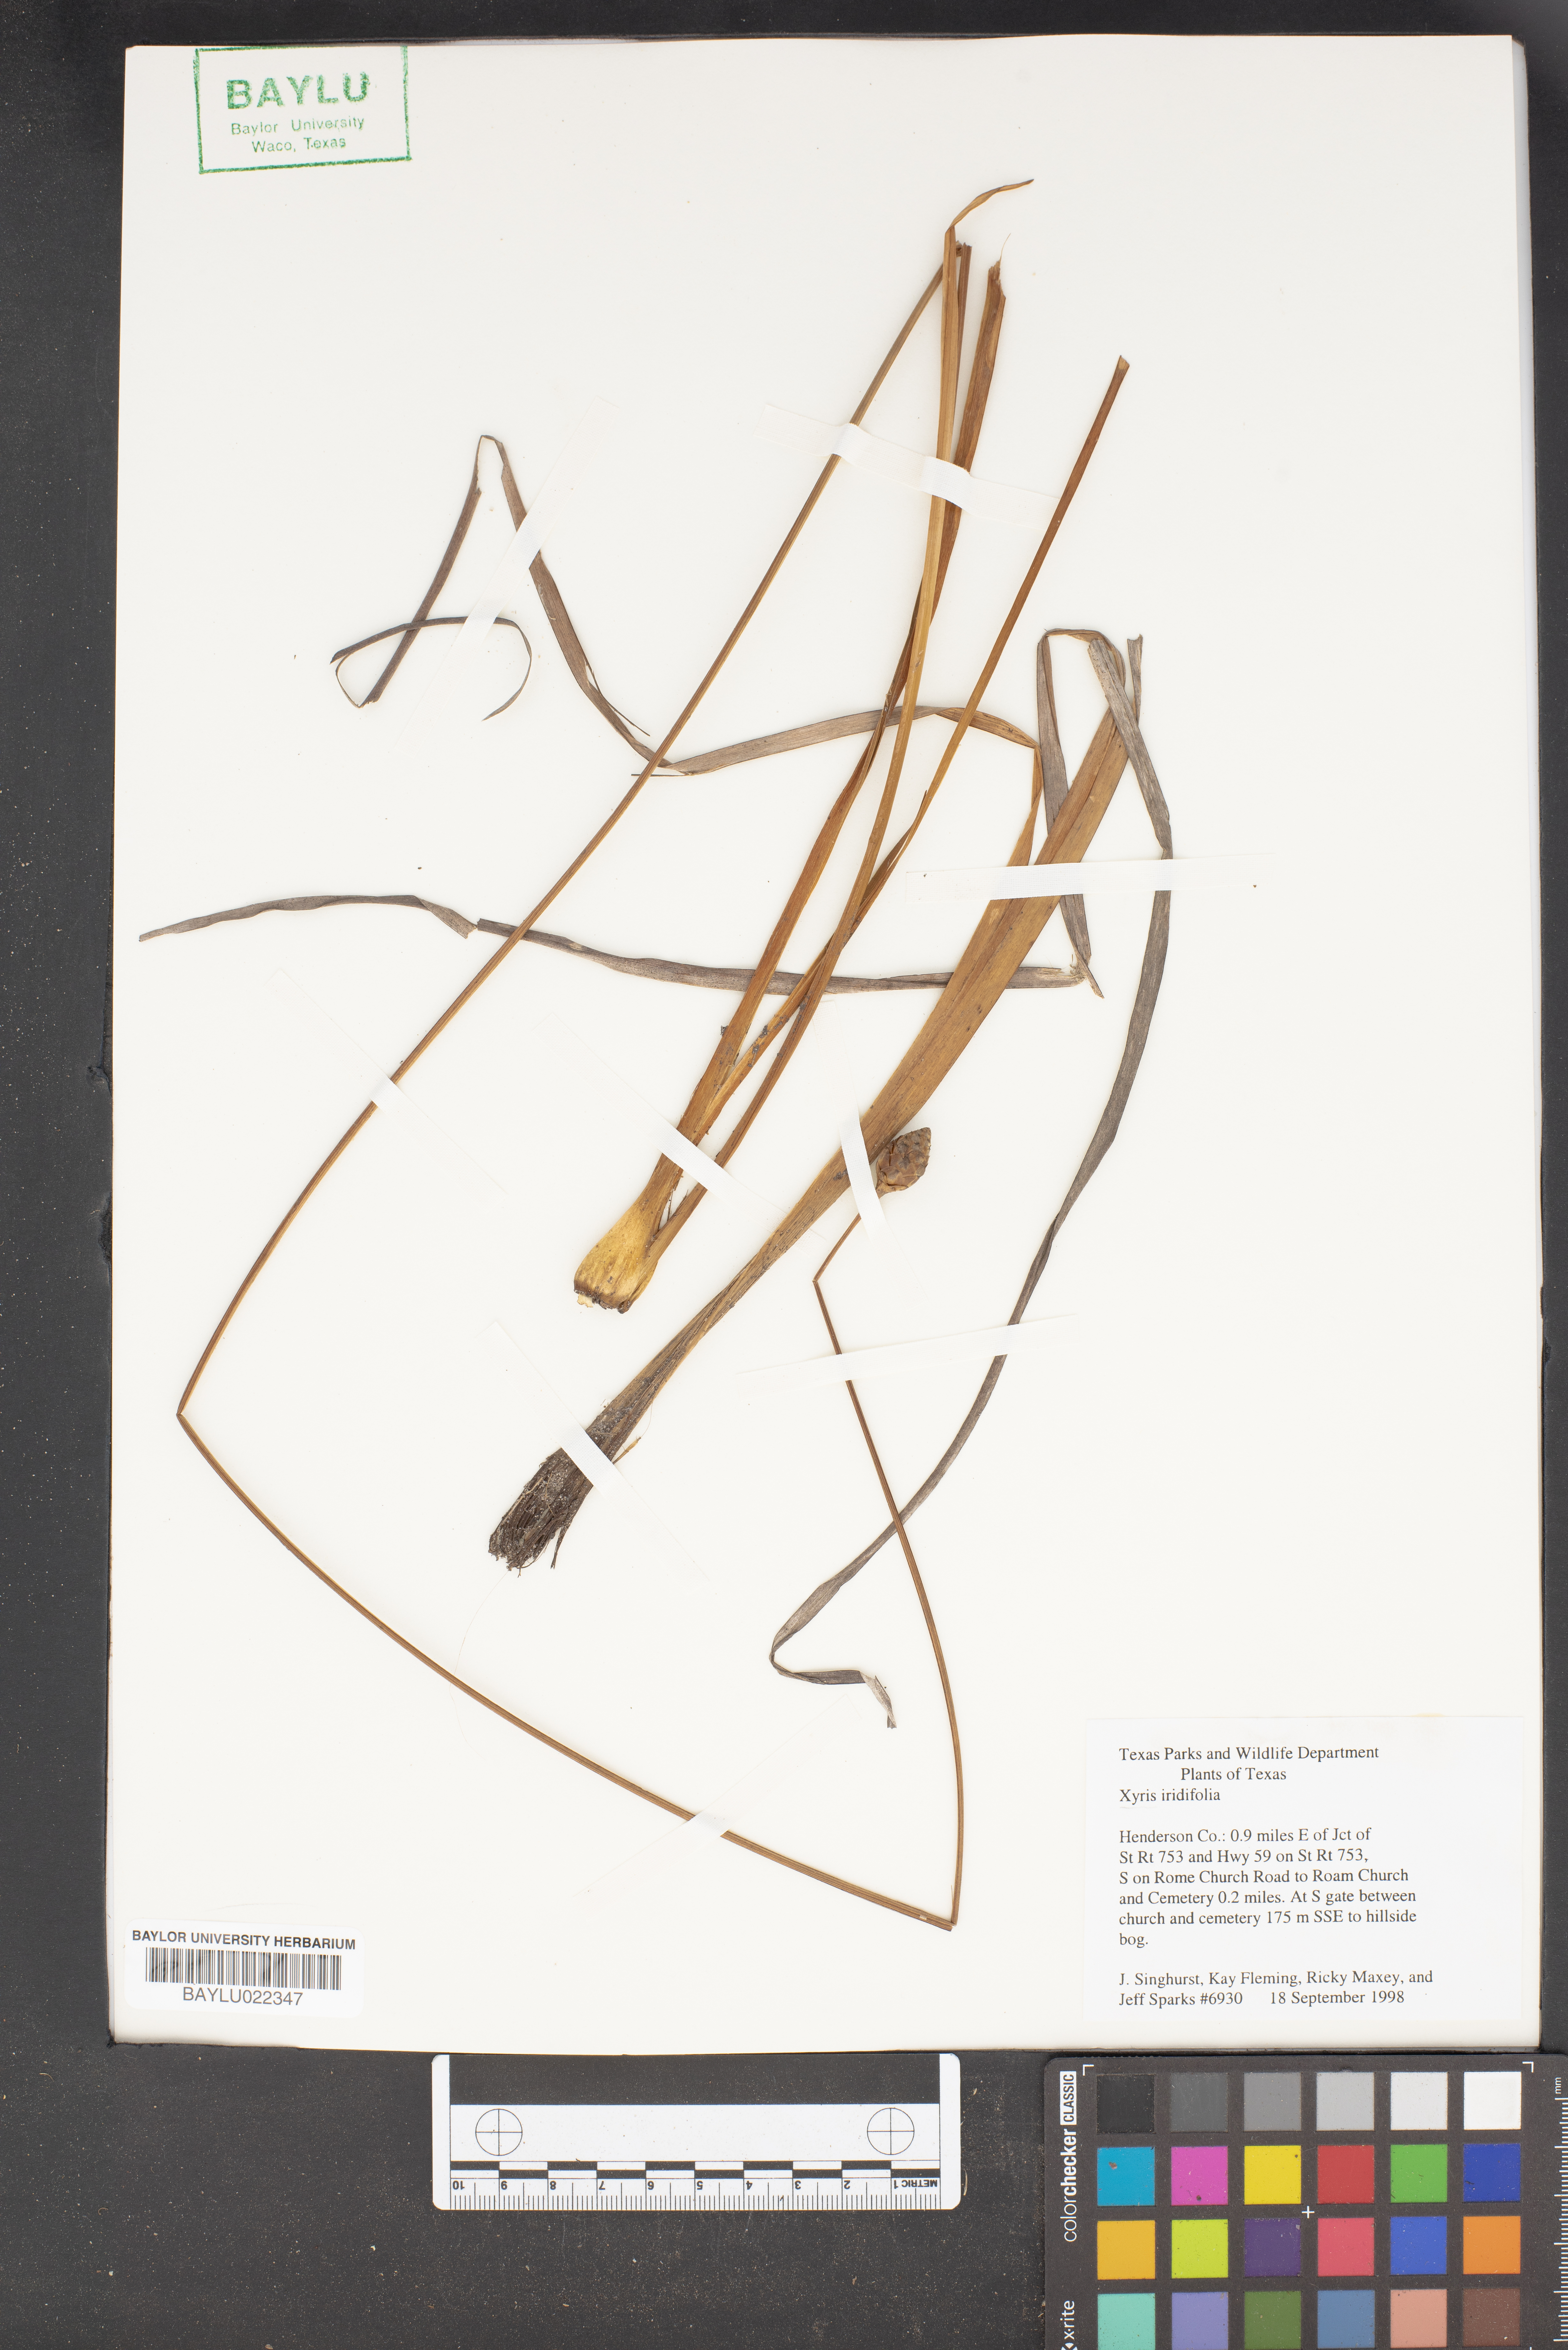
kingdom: Plantae
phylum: Tracheophyta
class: Liliopsida
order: Poales
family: Xyridaceae
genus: Xyris
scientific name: Xyris laxifolia
